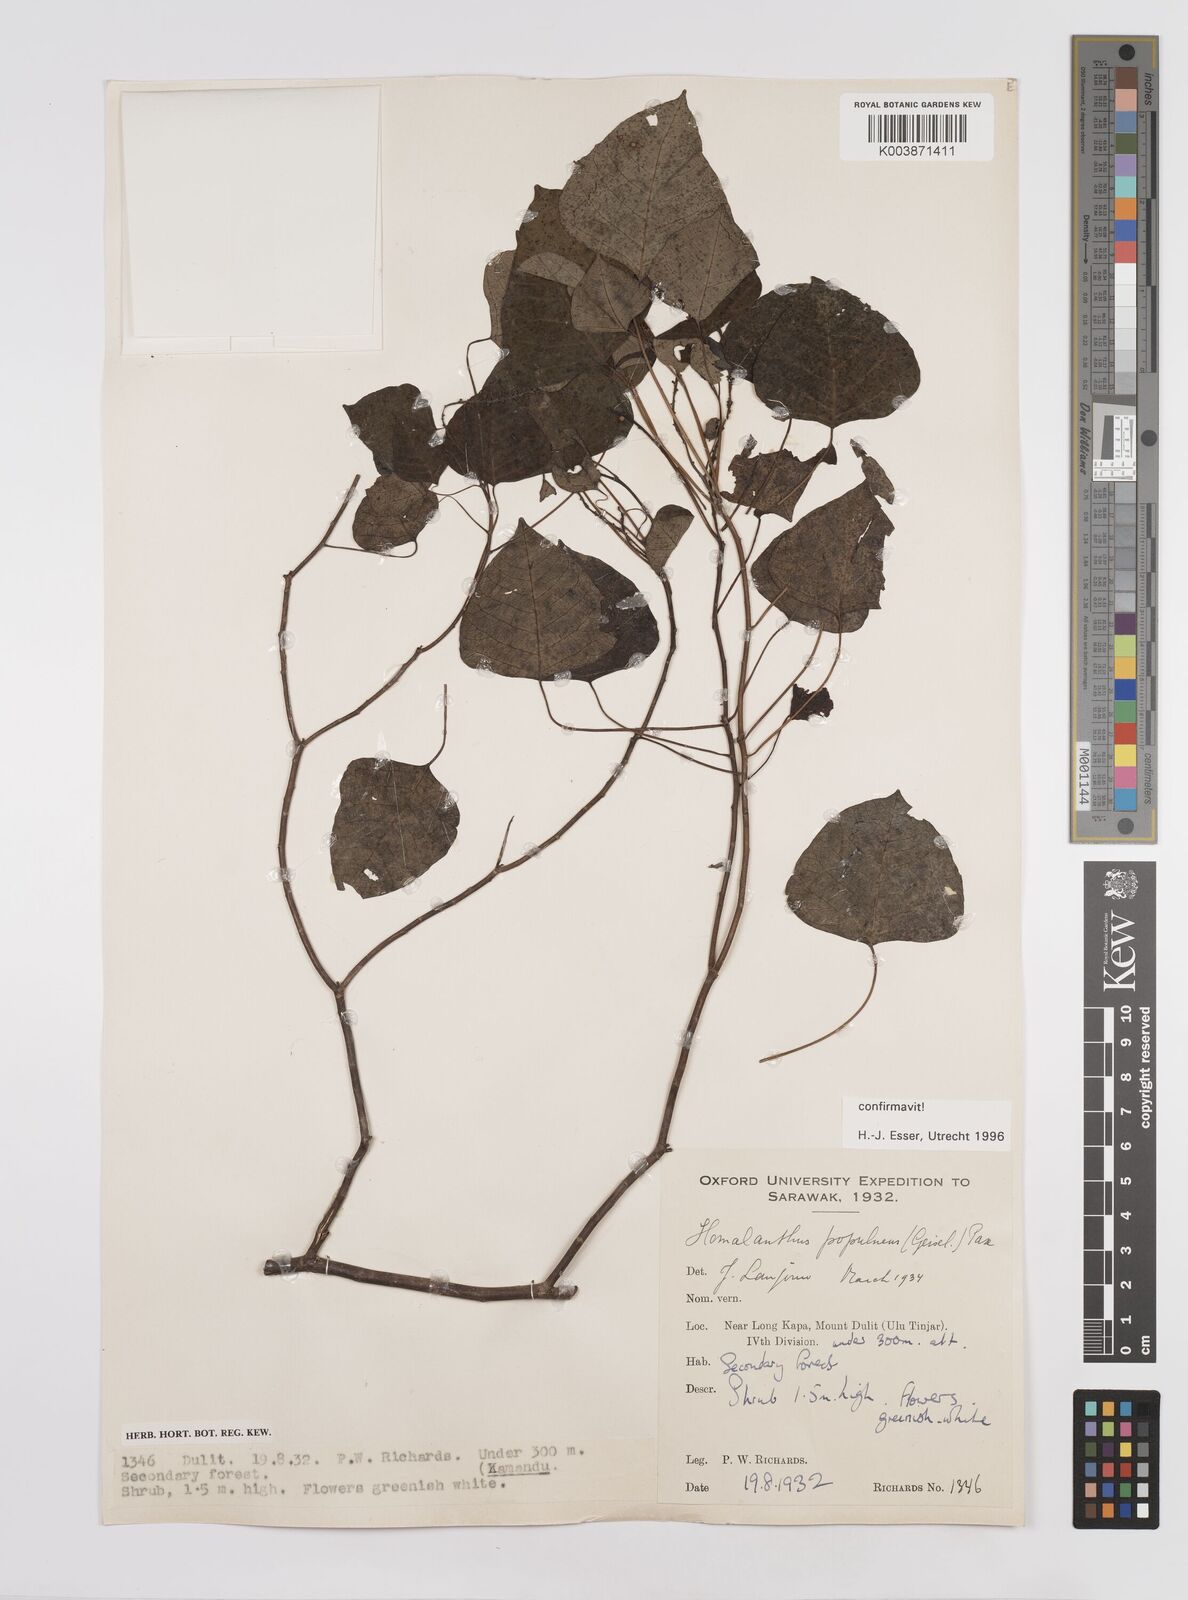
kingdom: Plantae
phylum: Tracheophyta
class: Magnoliopsida
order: Malpighiales
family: Euphorbiaceae
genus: Homalanthus
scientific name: Homalanthus populneus
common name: Spurge
